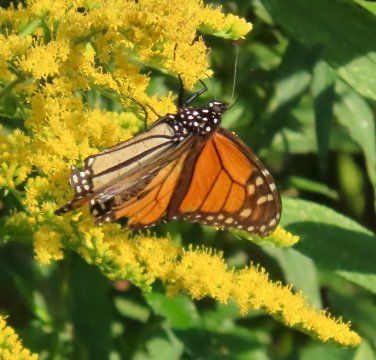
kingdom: Animalia
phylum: Arthropoda
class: Insecta
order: Lepidoptera
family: Nymphalidae
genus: Danaus
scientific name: Danaus plexippus
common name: Monarch
